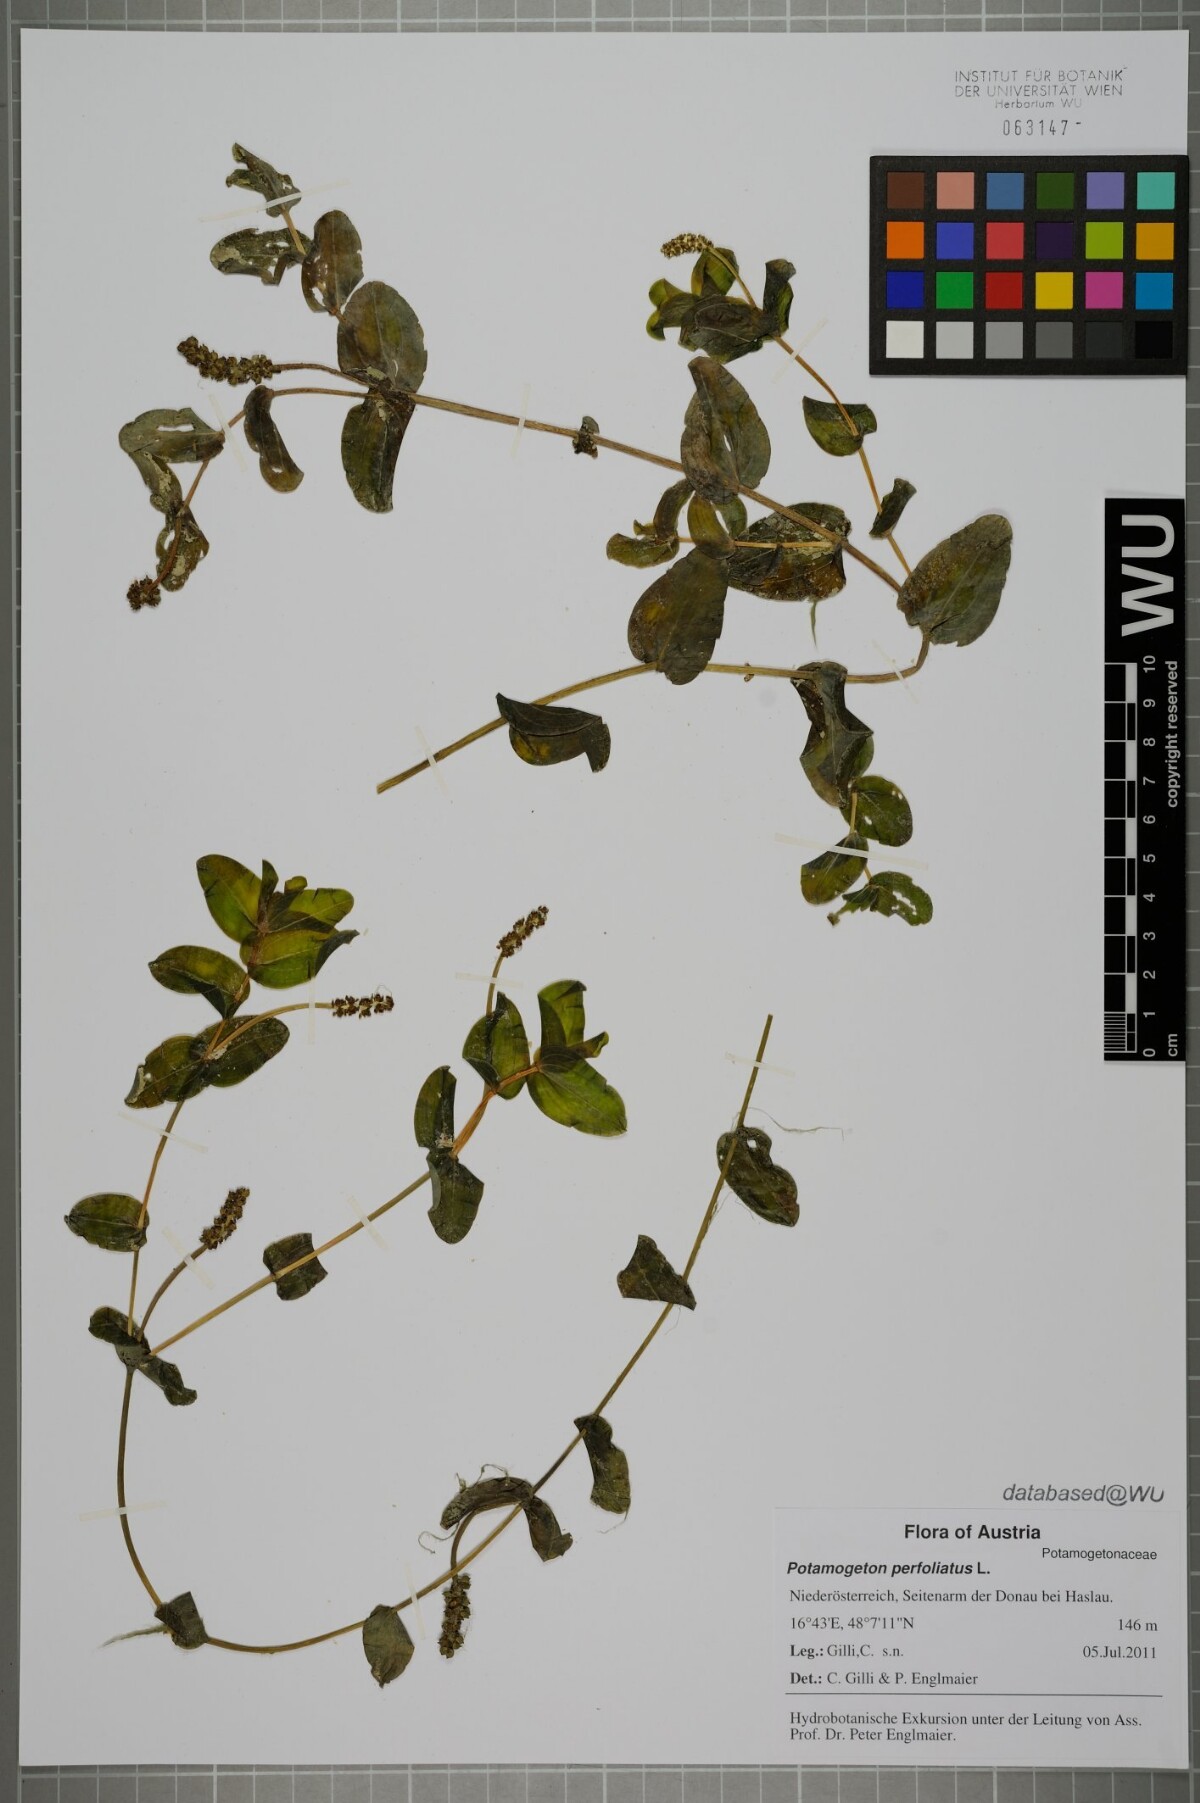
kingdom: Plantae
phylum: Tracheophyta
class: Liliopsida
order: Alismatales
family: Potamogetonaceae
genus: Potamogeton
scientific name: Potamogeton perfoliatus
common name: Perfoliate pondweed
